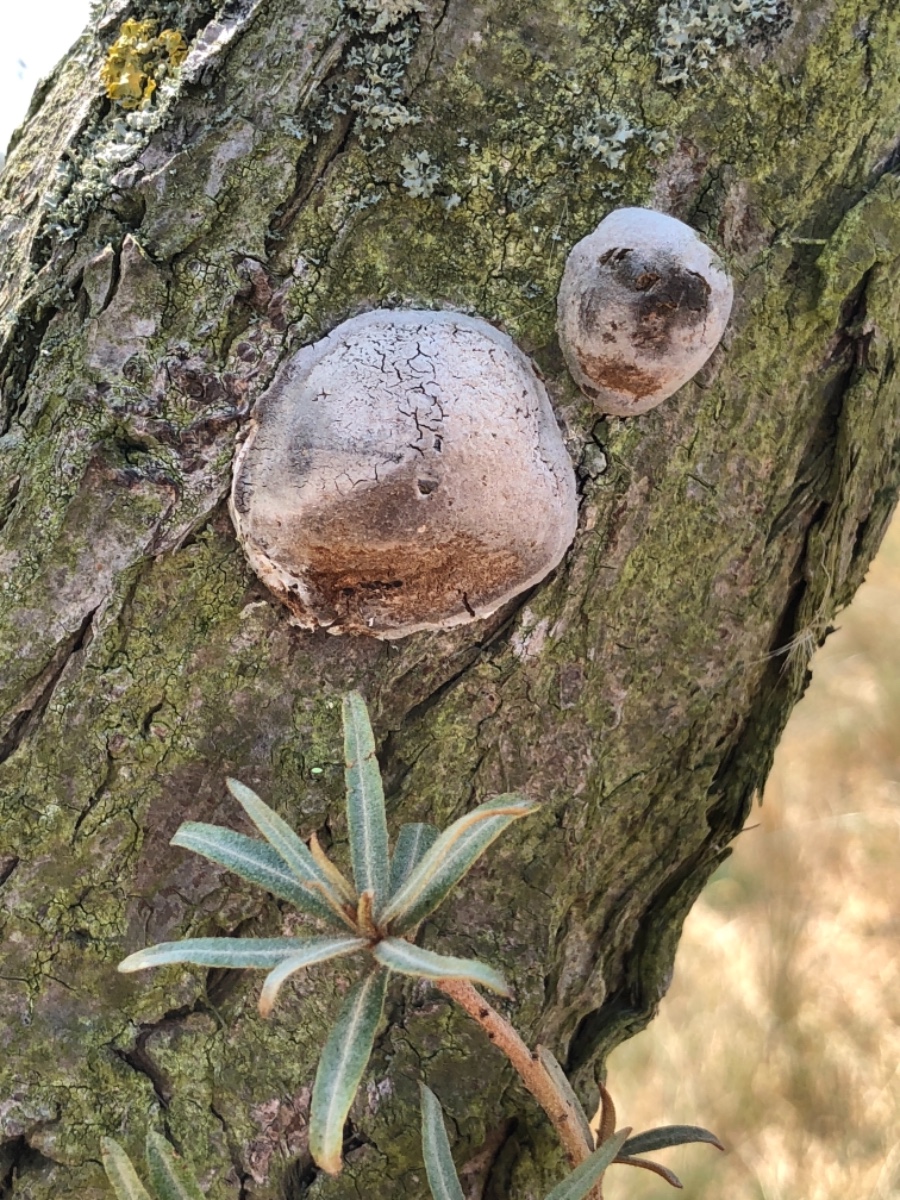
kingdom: Fungi
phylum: Basidiomycota
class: Agaricomycetes
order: Hymenochaetales
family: Hymenochaetaceae
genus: Fomitiporia
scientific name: Fomitiporia hippophaeicola
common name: havtorn-ildporesvamp
